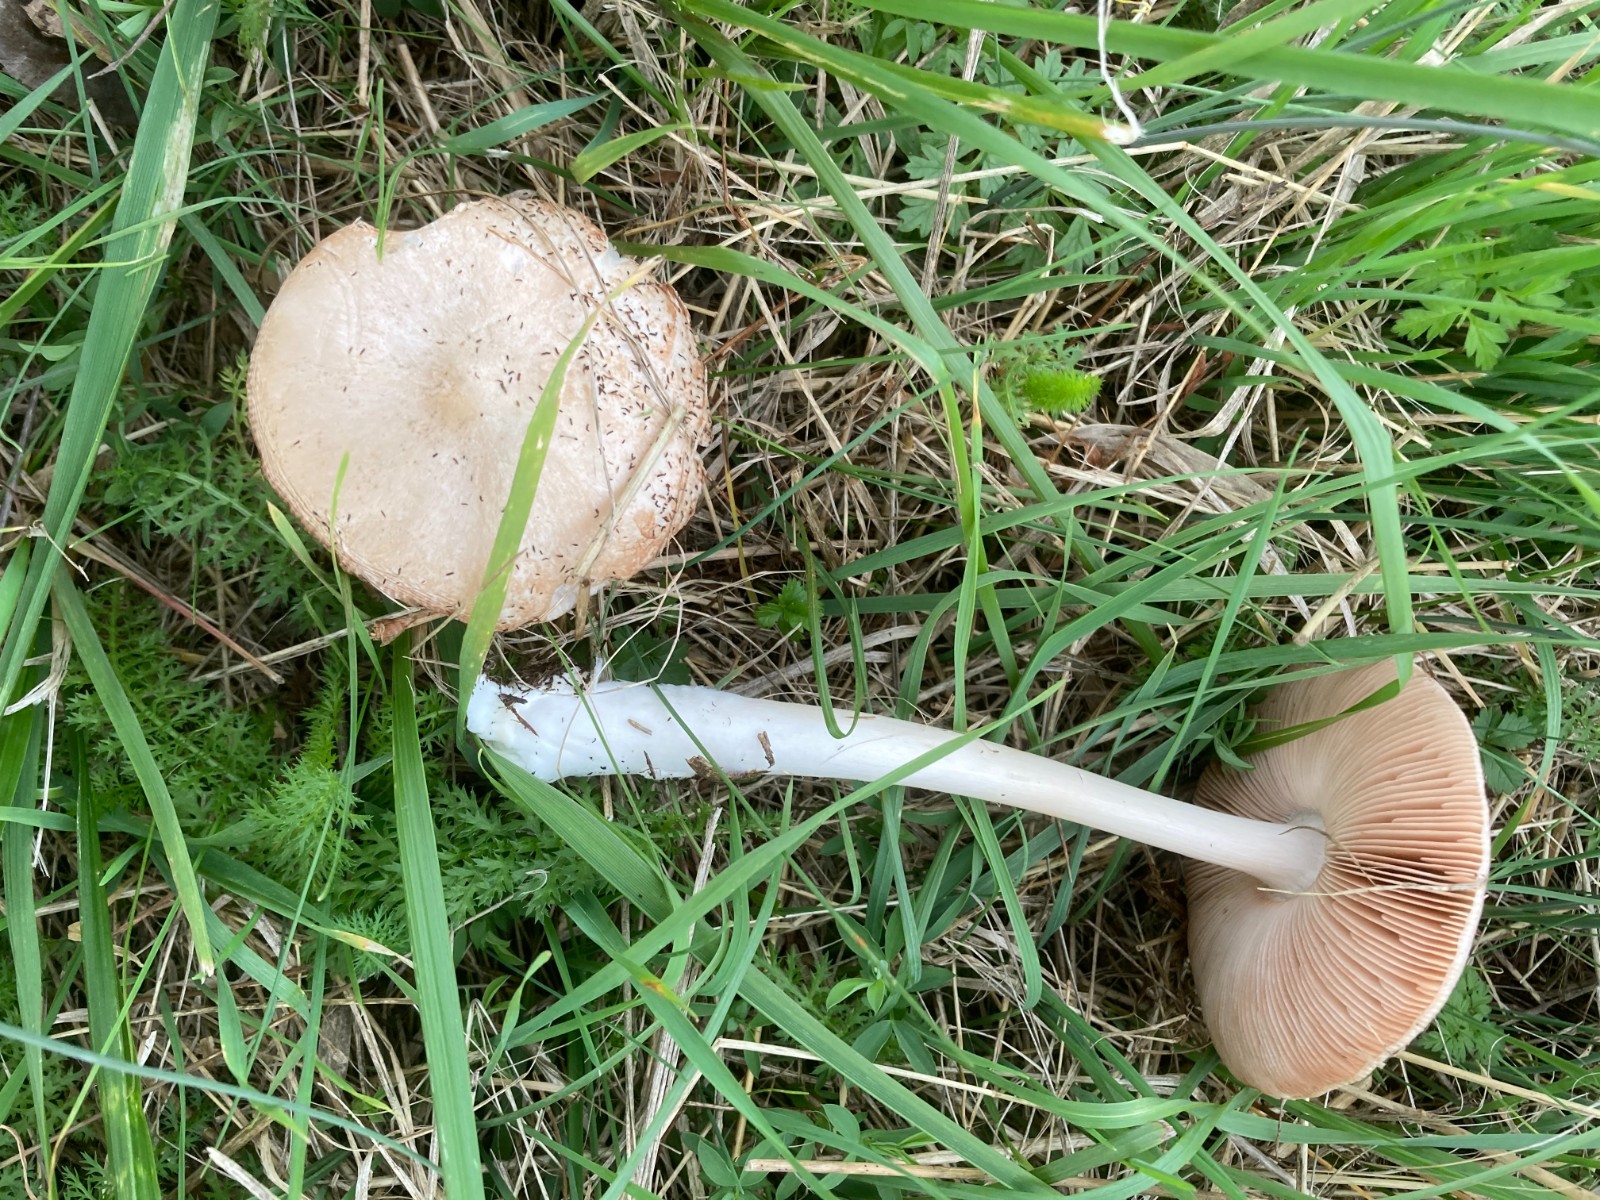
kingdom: Fungi
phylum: Basidiomycota
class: Agaricomycetes
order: Agaricales
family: Pluteaceae
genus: Volvopluteus
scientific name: Volvopluteus gloiocephalus
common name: høj posesvamp
